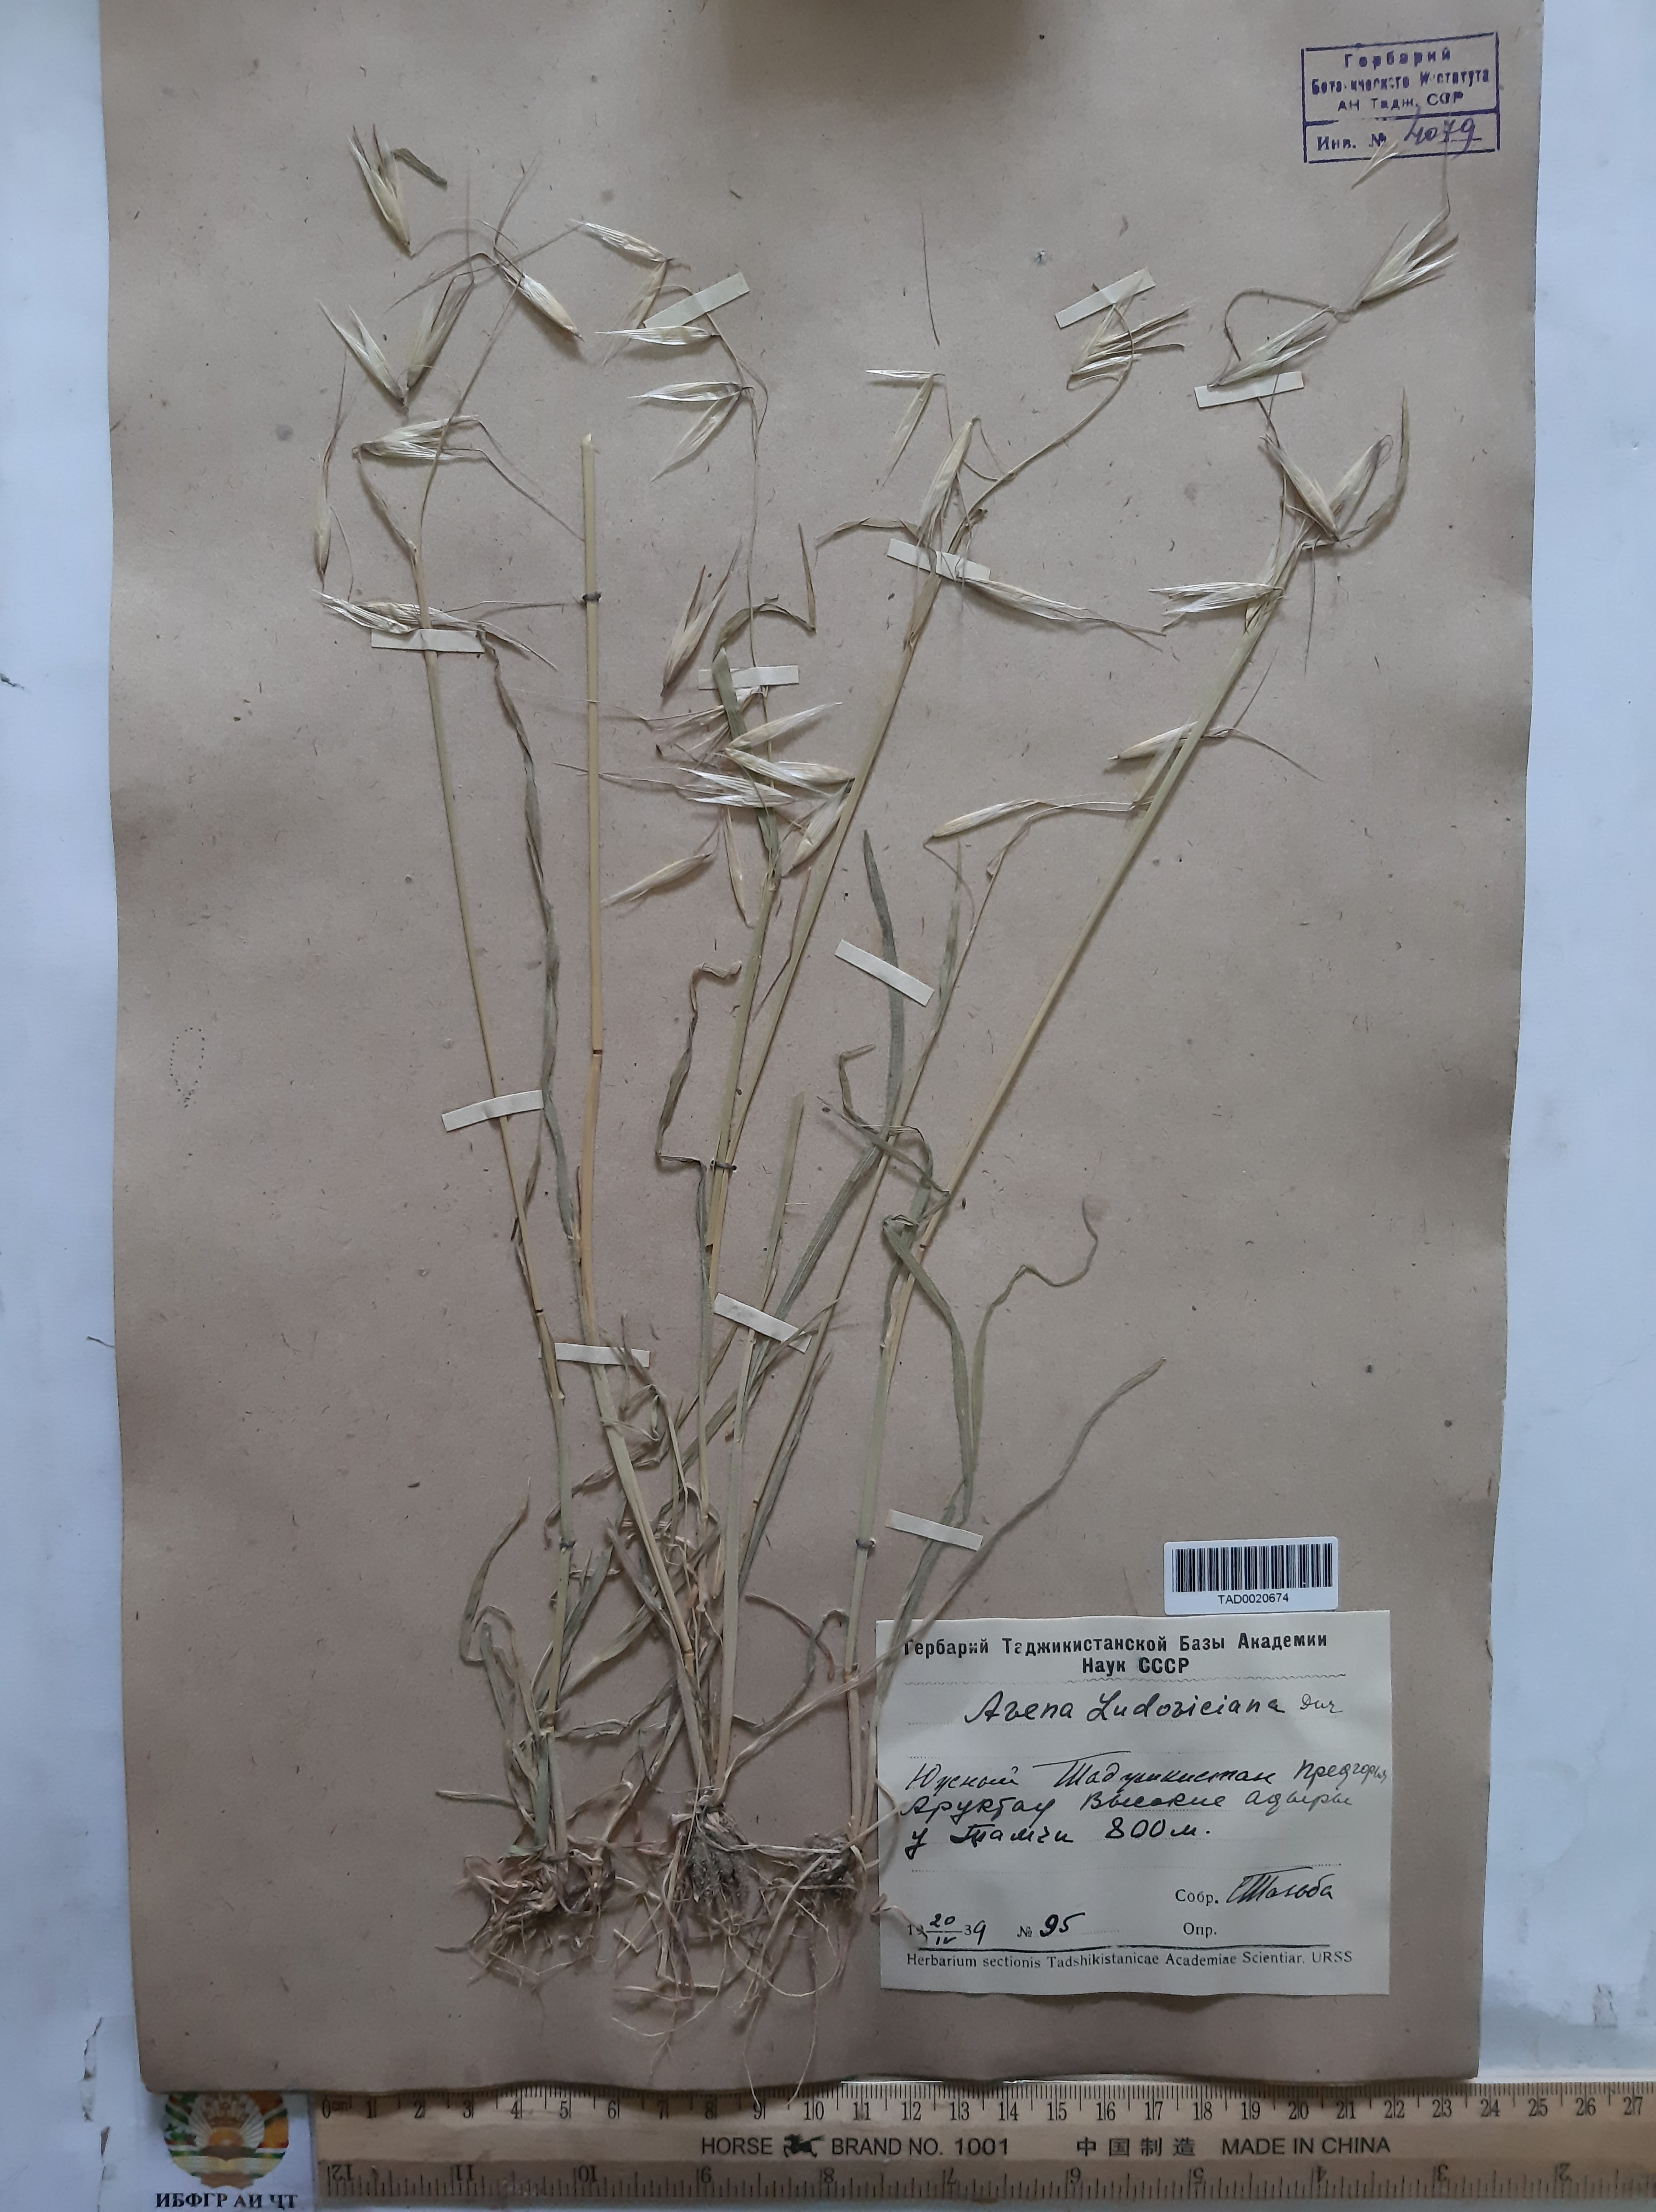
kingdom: Plantae
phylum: Tracheophyta
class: Liliopsida
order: Poales
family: Poaceae
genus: Avena
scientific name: Avena sterilis
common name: Animated oat
